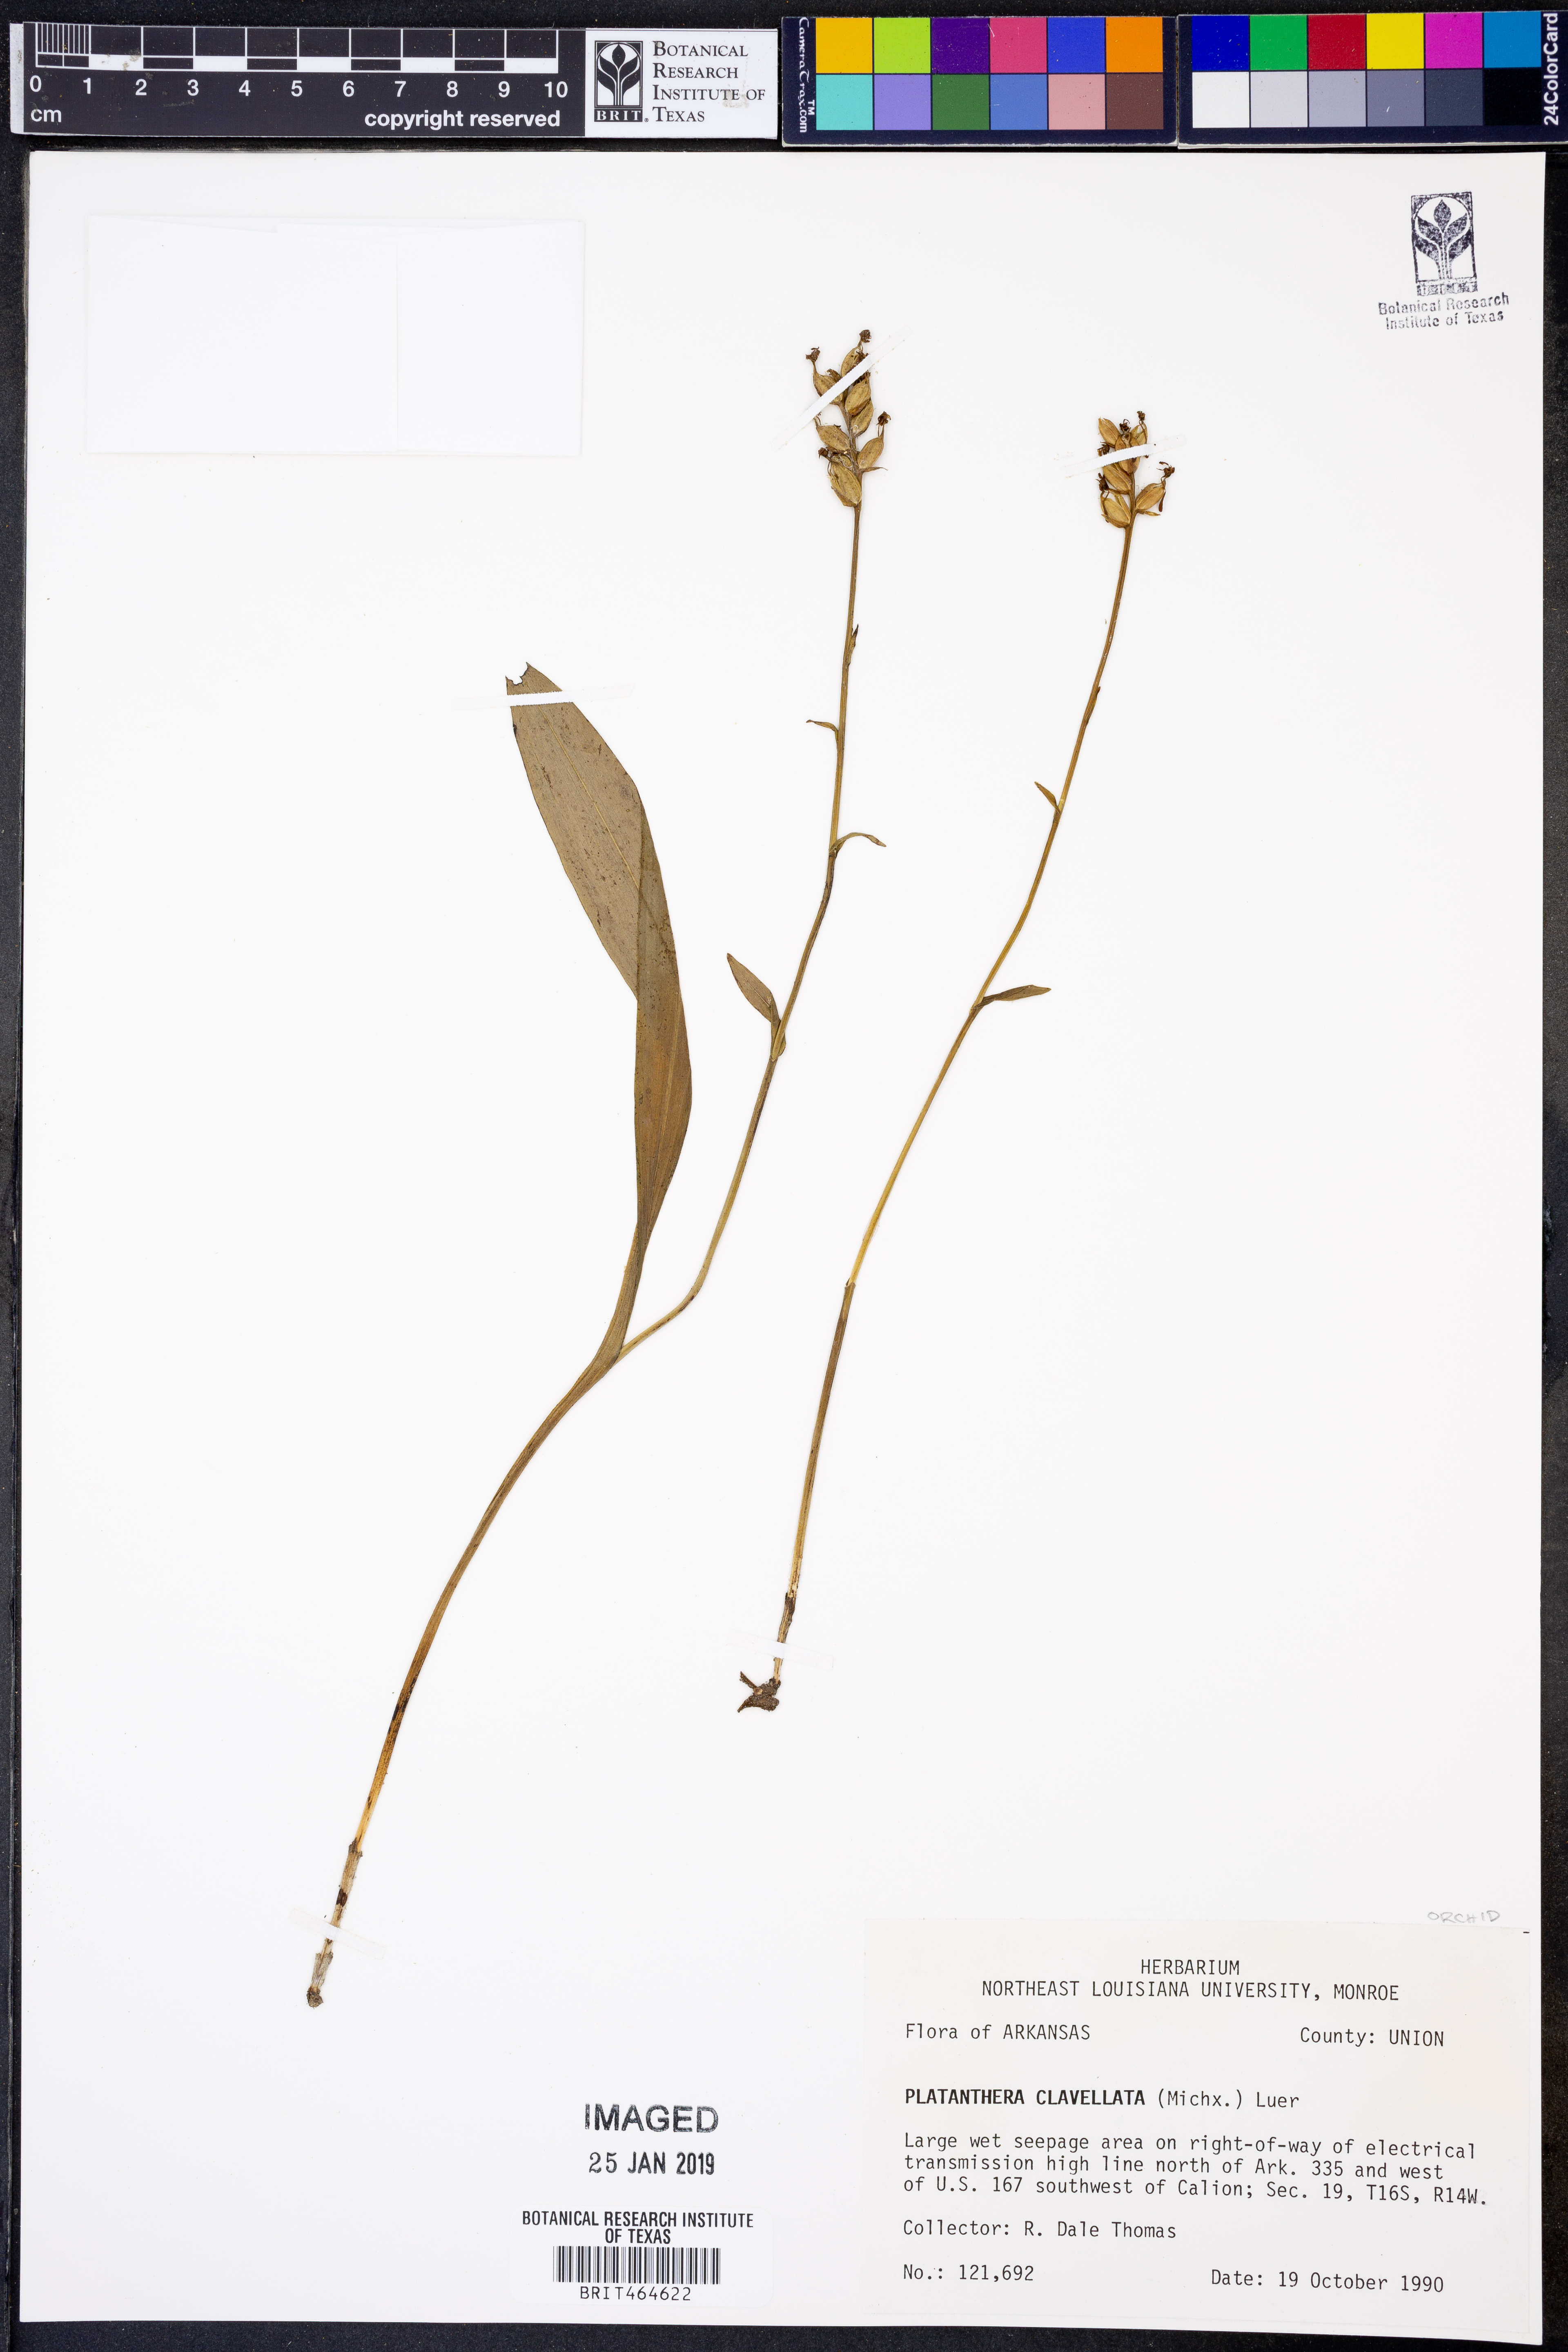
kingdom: Plantae
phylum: Tracheophyta
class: Liliopsida
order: Asparagales
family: Orchidaceae
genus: Platanthera
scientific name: Platanthera clavellata
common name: Club-spur orchid
